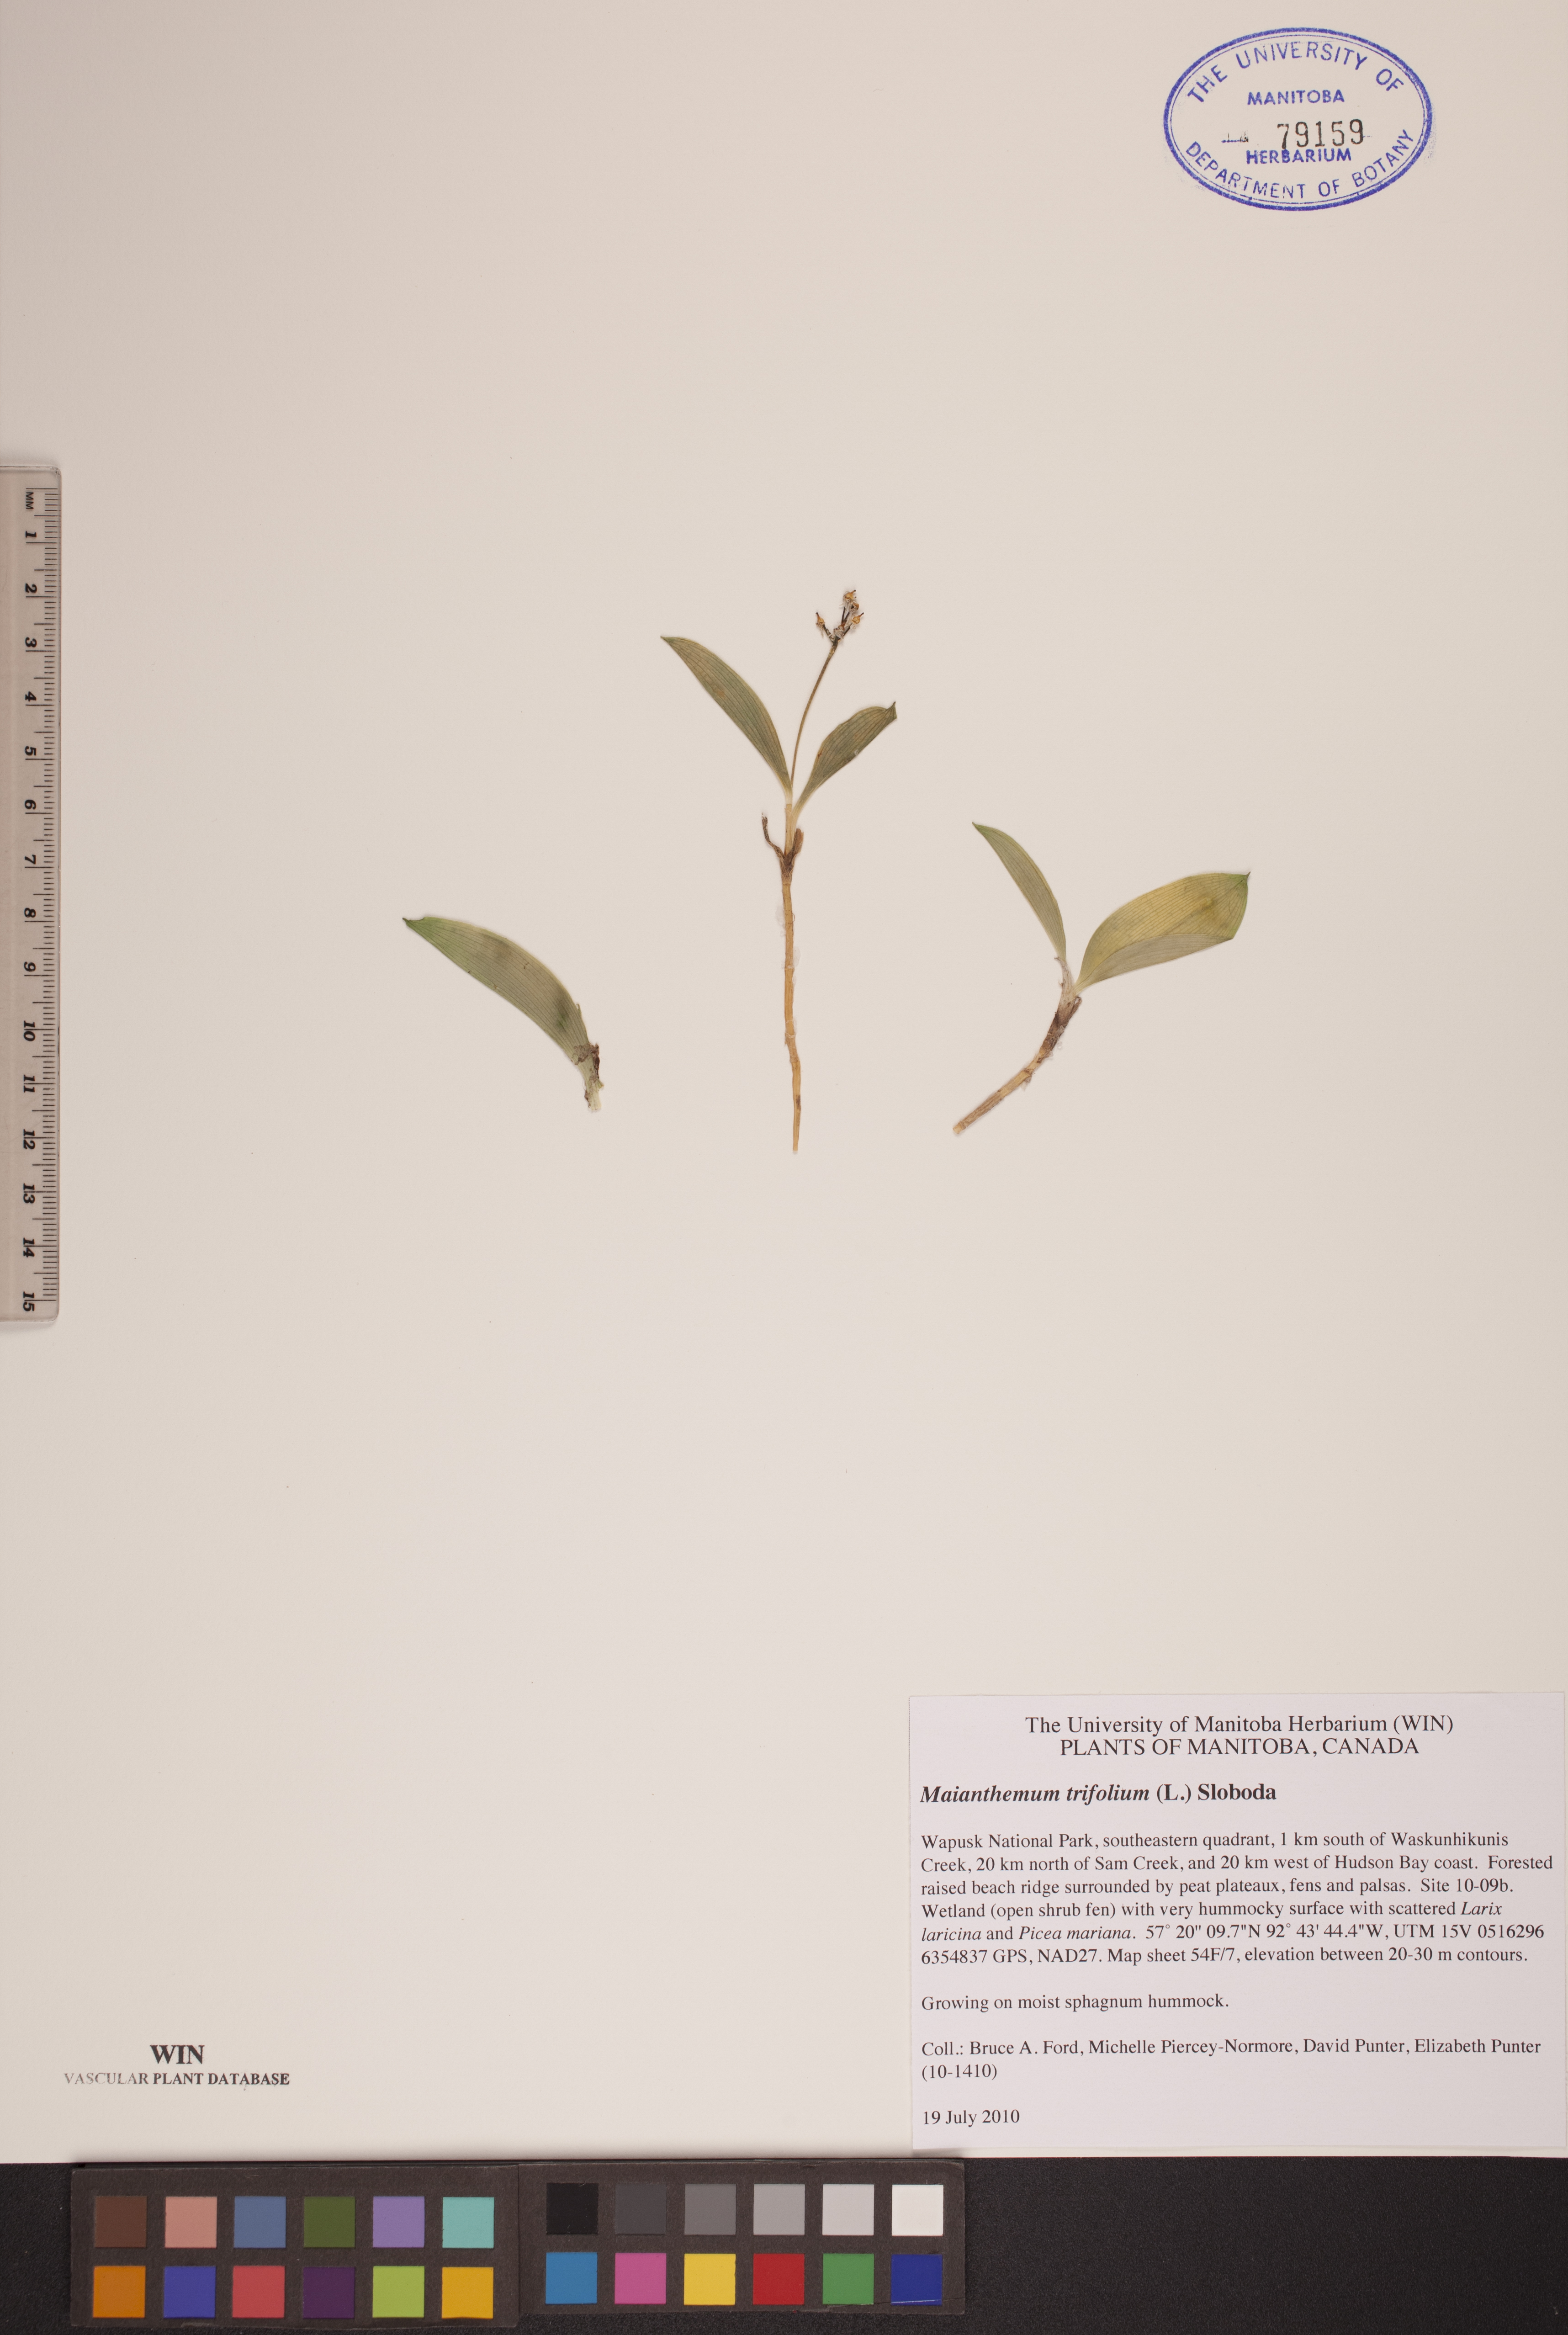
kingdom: Plantae
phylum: Tracheophyta
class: Liliopsida
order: Asparagales
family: Asparagaceae
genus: Maianthemum
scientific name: Maianthemum trifolium
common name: Swamp false solomon's seal
